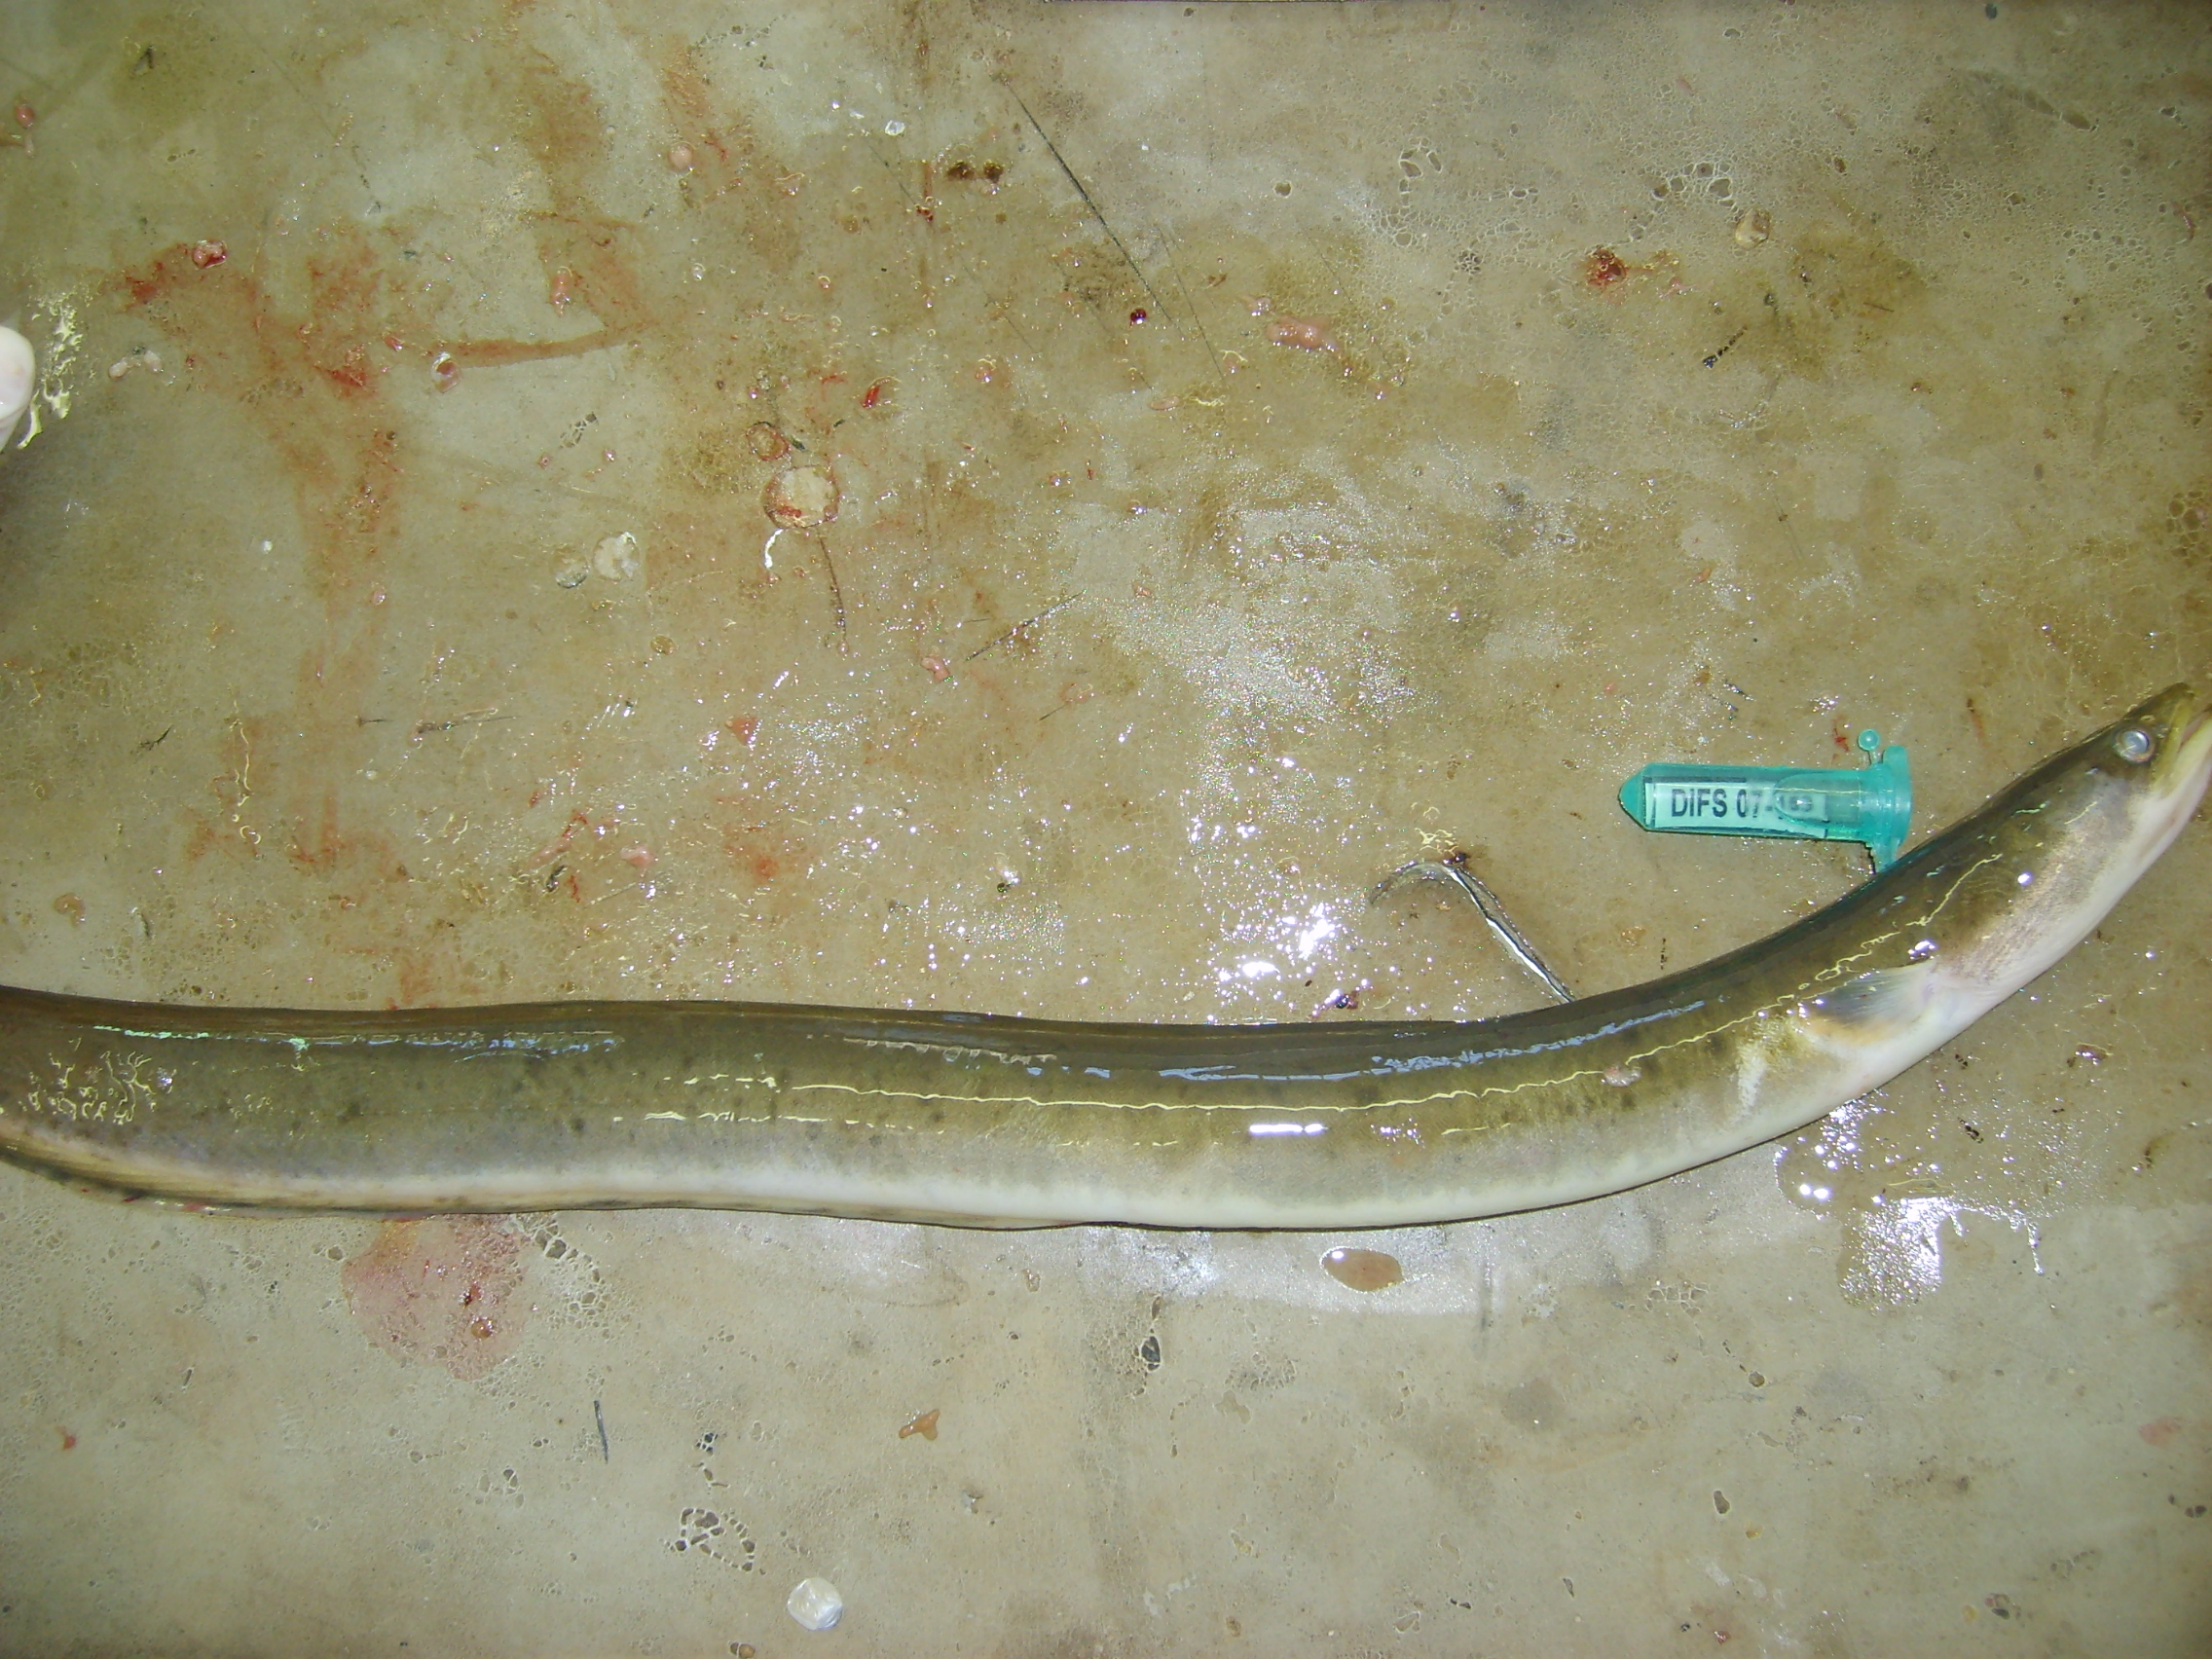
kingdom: Animalia
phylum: Chordata
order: Anguilliformes
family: Anguillidae
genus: Anguilla
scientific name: Anguilla mossambica
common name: African longfin eel
